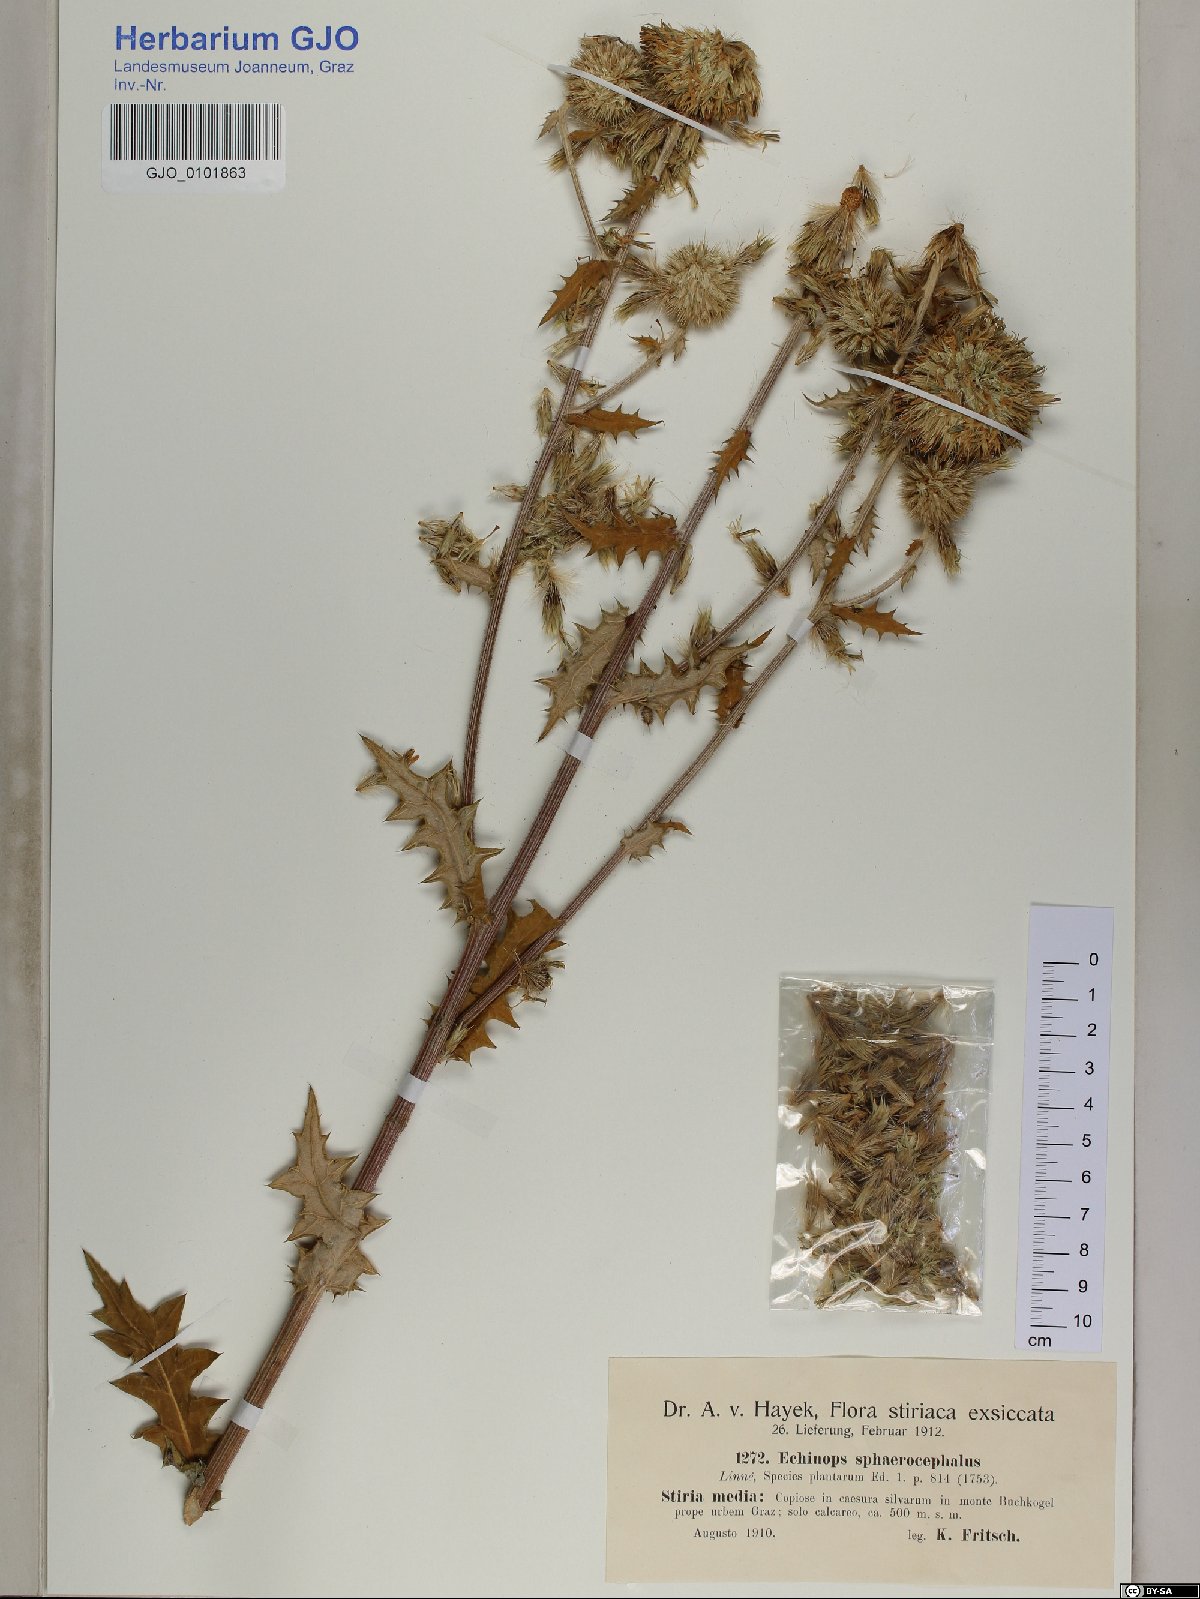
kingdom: Plantae
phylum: Tracheophyta
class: Magnoliopsida
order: Asterales
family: Asteraceae
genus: Echinops
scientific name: Echinops sphaerocephalus
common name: Glandular globe-thistle
